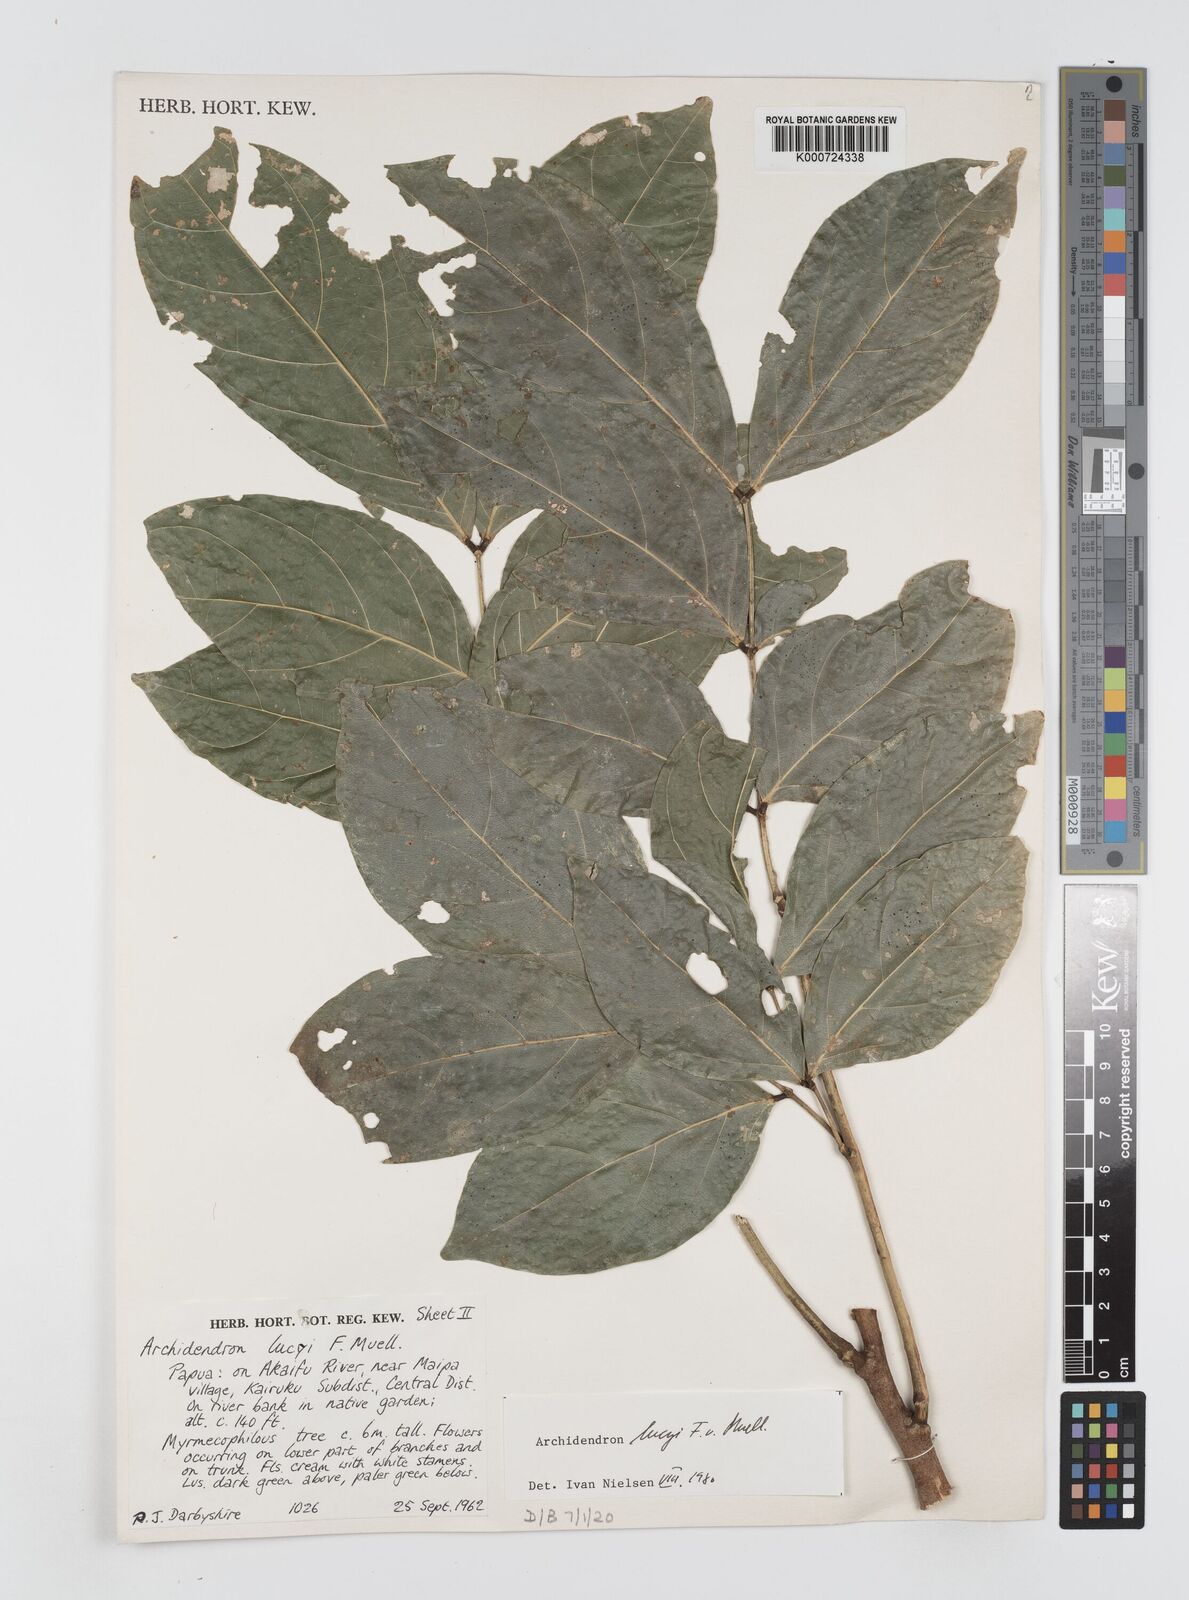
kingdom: Plantae
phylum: Tracheophyta
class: Magnoliopsida
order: Fabales
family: Fabaceae
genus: Archidendron
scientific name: Archidendron lucyi
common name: Scarlet bean
